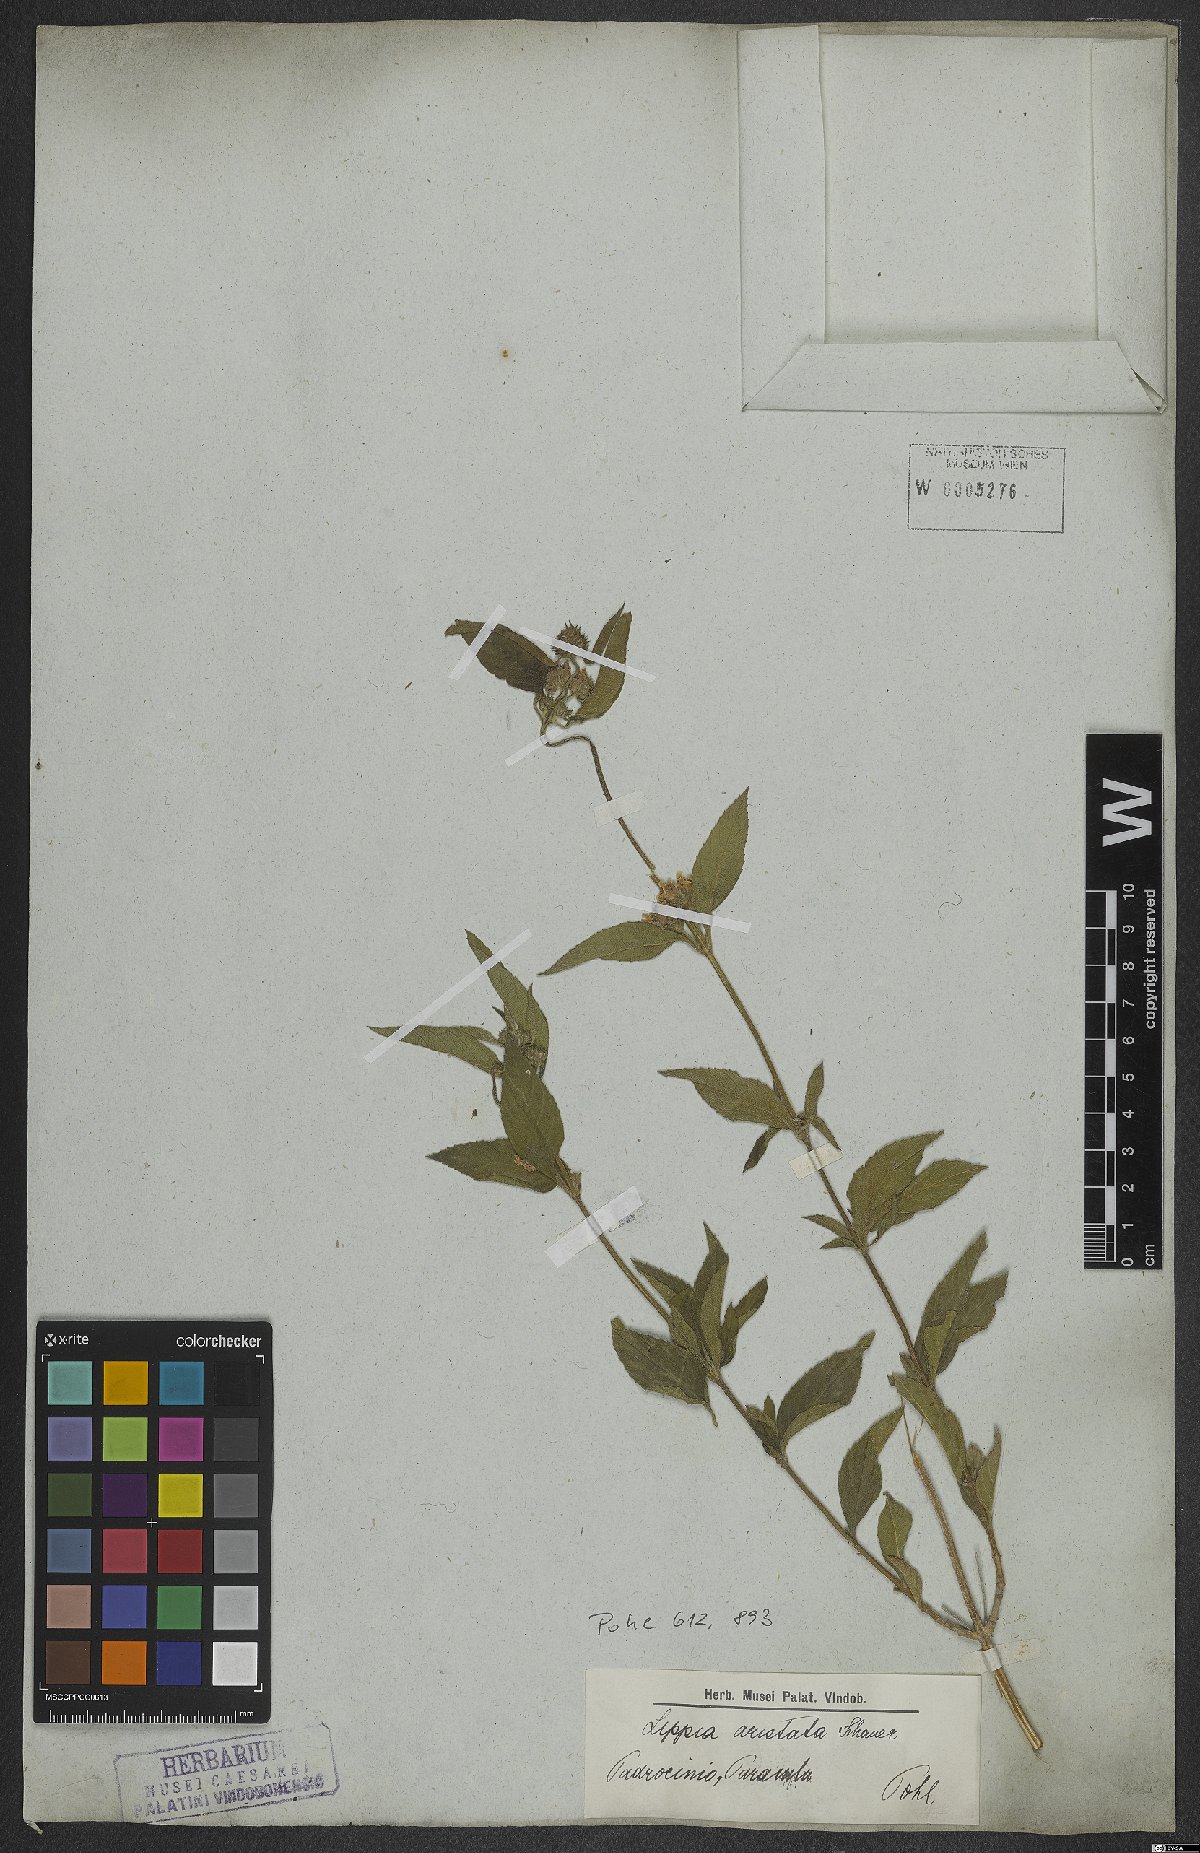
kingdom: Plantae
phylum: Tracheophyta
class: Magnoliopsida
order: Lamiales
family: Verbenaceae
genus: Lippia
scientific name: Lippia aristata
